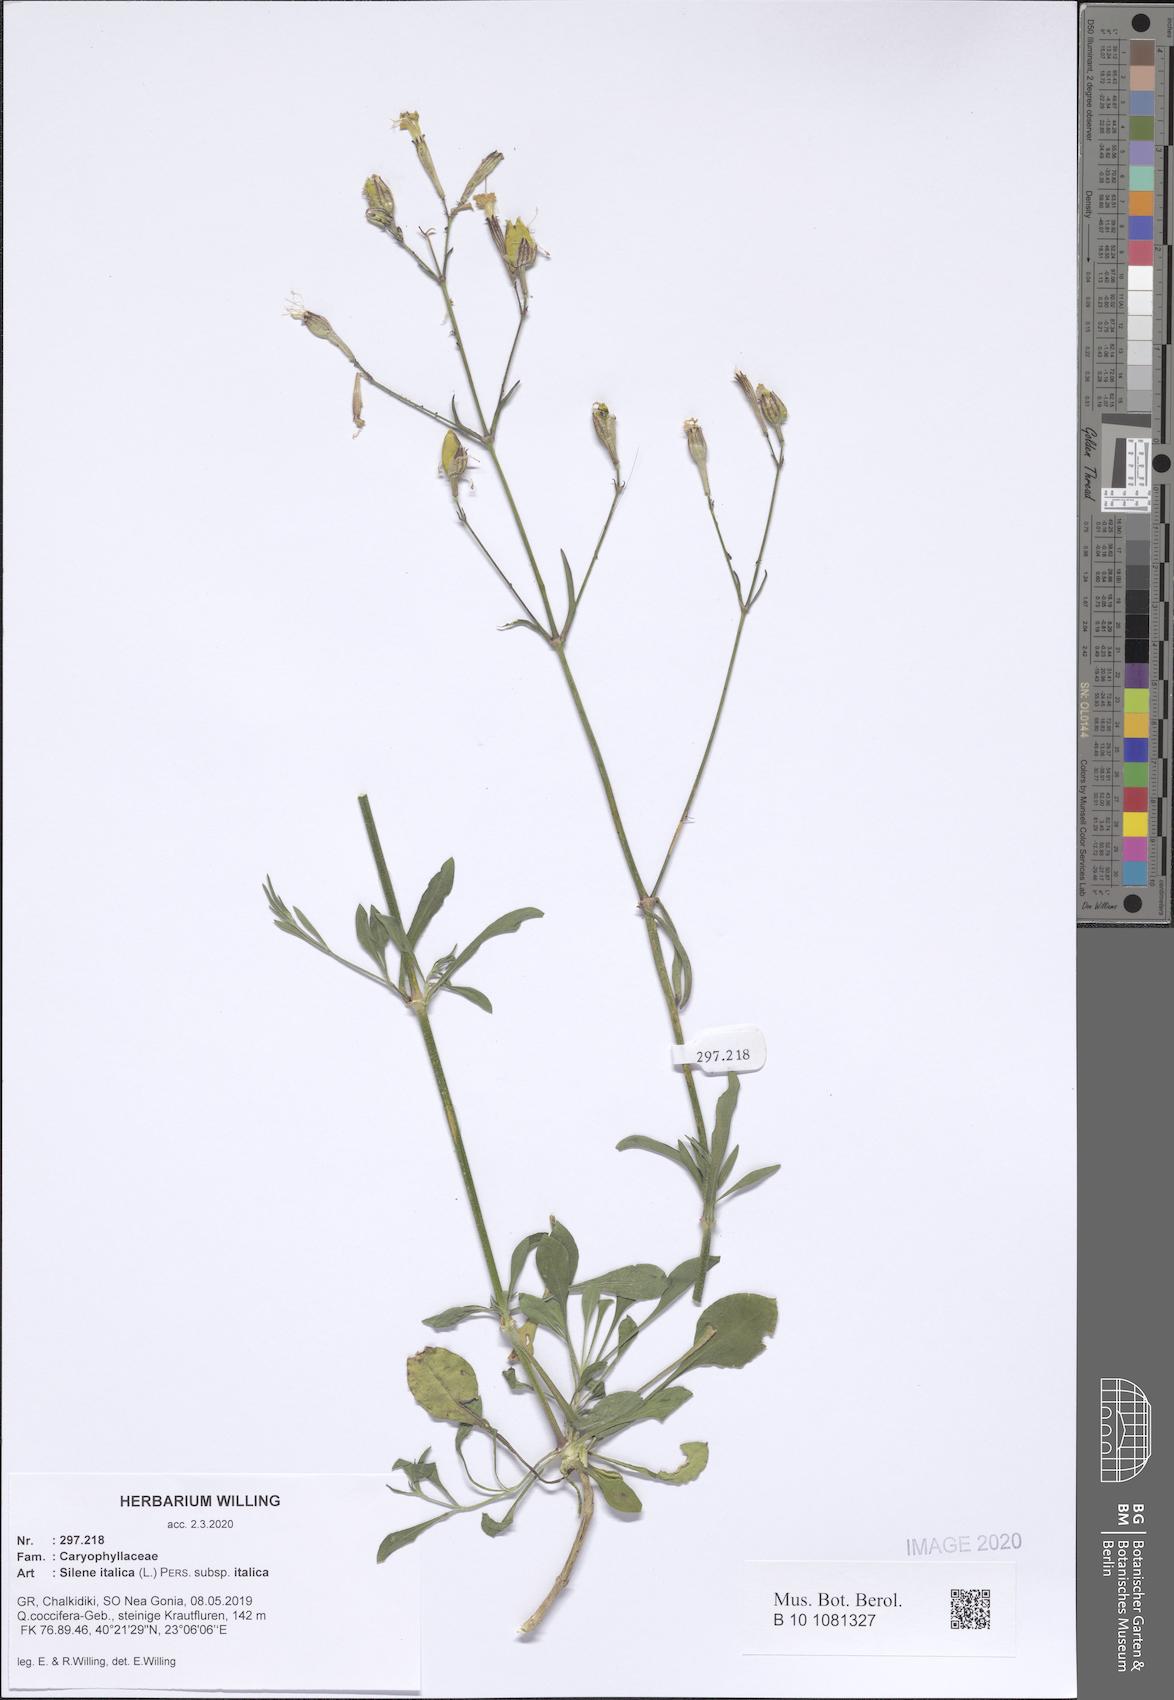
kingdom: Plantae
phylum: Tracheophyta
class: Magnoliopsida
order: Caryophyllales
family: Caryophyllaceae
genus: Silene
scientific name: Silene italica
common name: Italian catchfly
